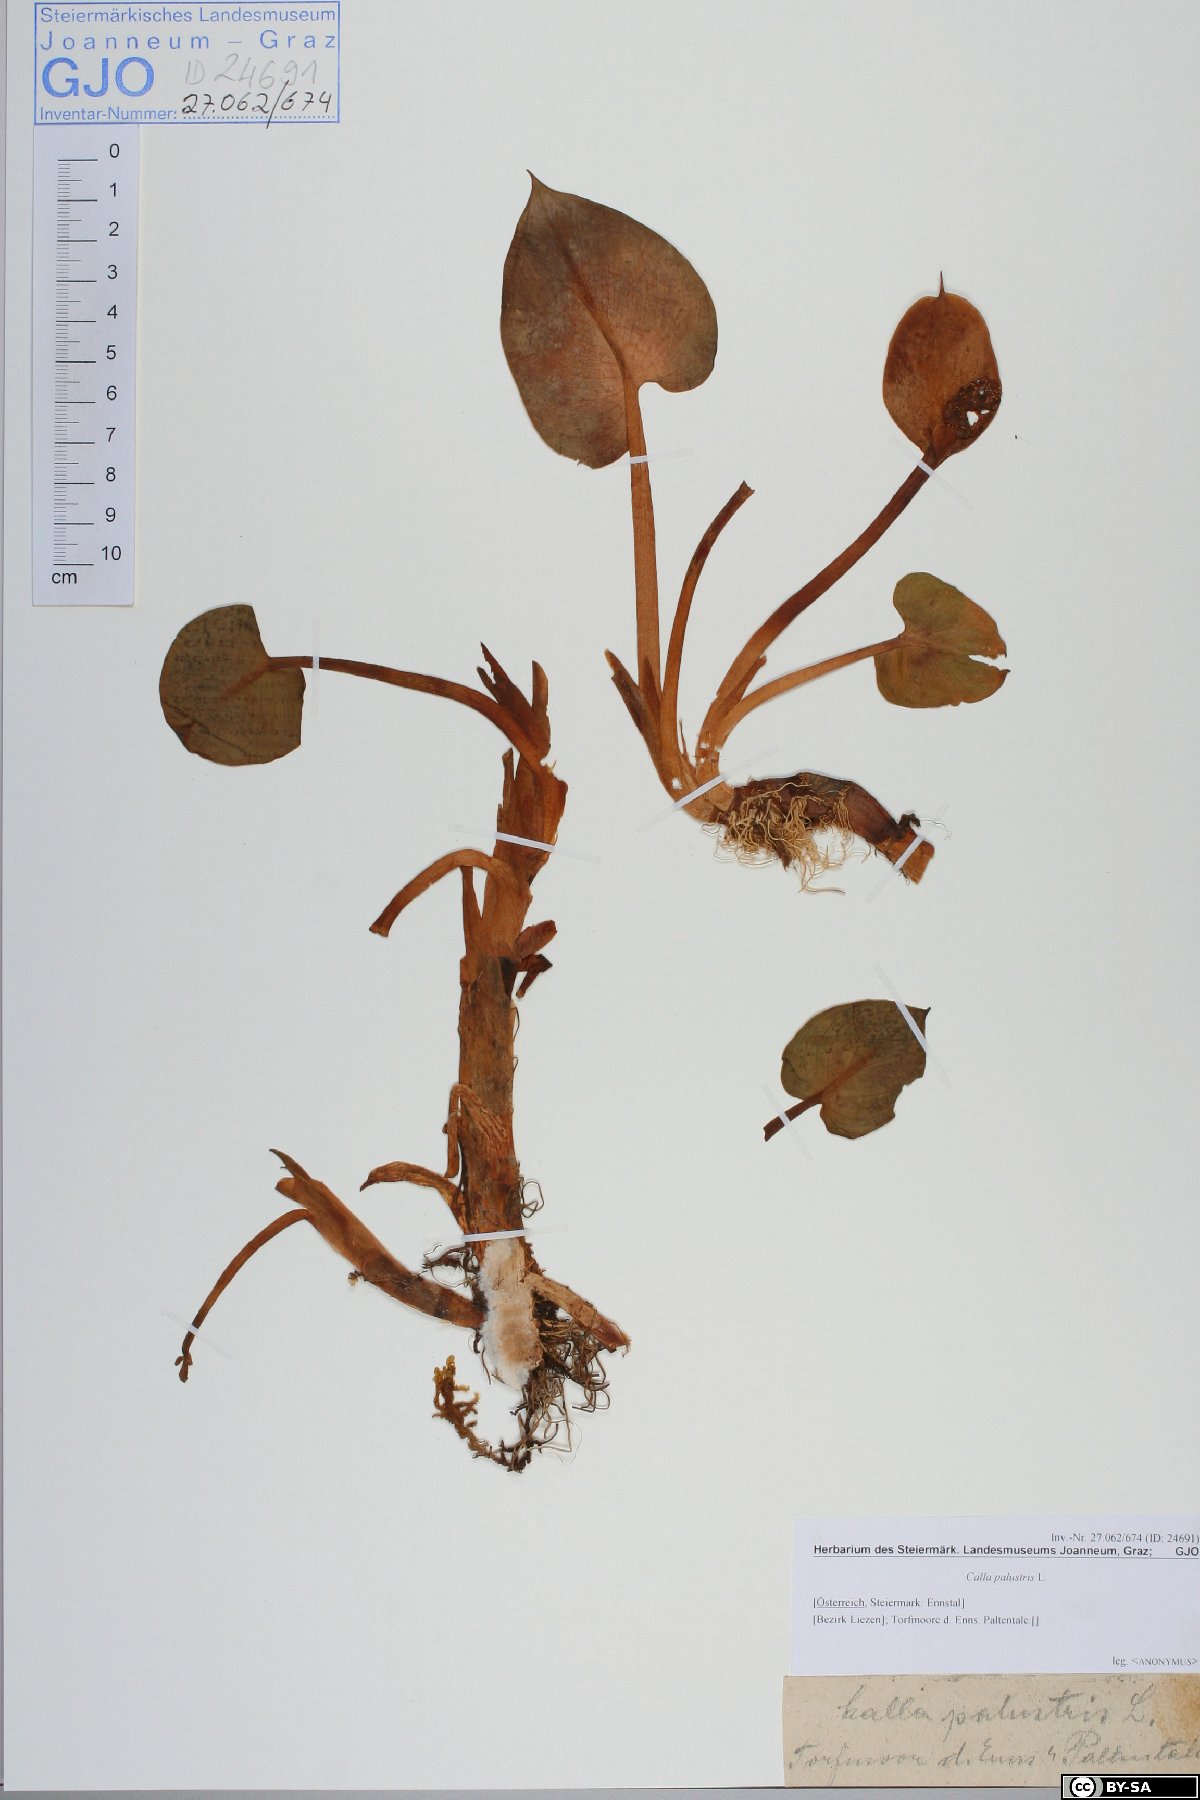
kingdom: Plantae
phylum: Tracheophyta
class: Liliopsida
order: Alismatales
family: Araceae
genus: Calla
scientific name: Calla palustris
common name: Bog arum
